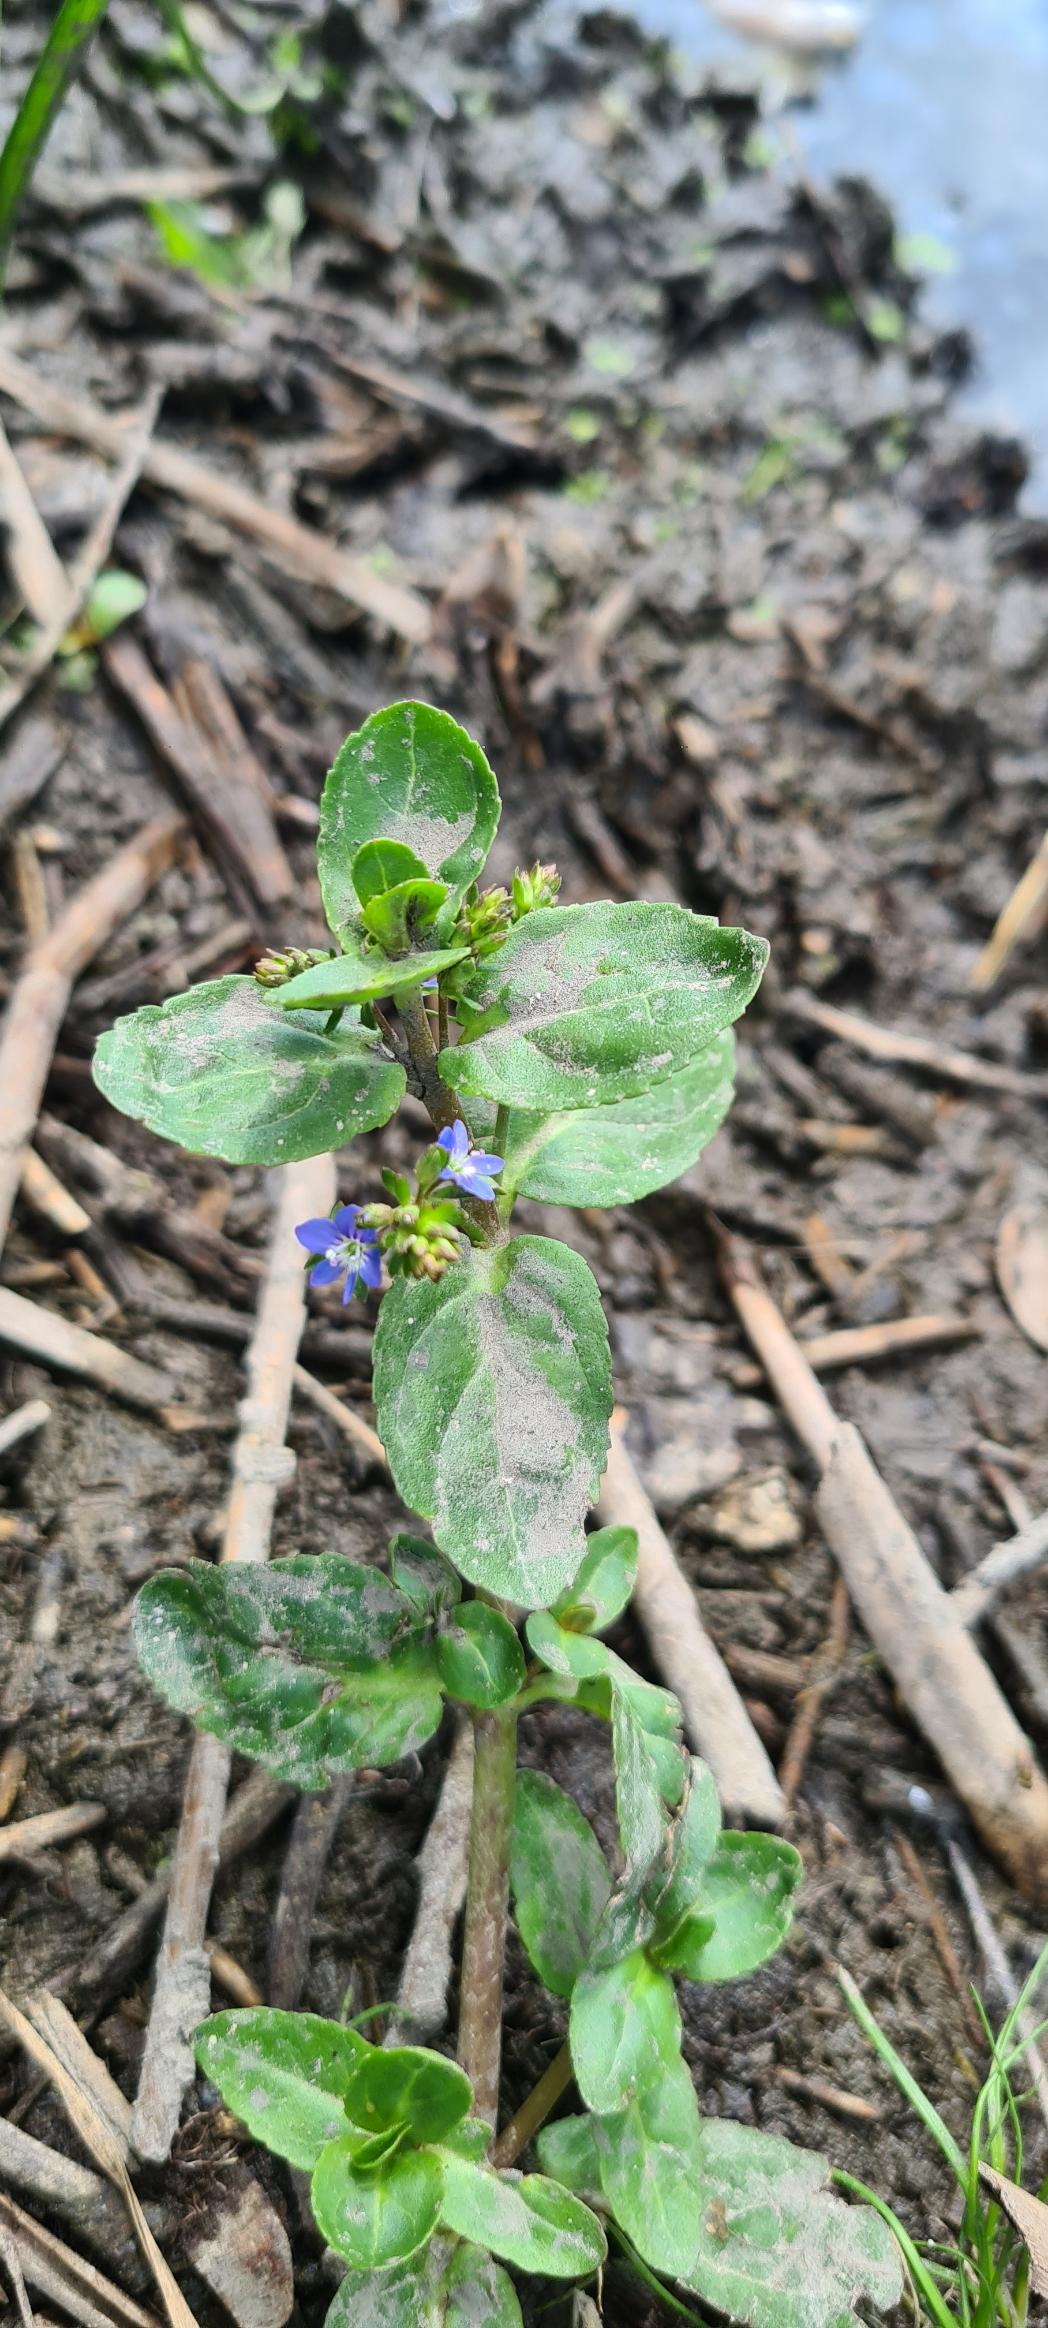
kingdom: Plantae
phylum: Tracheophyta
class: Magnoliopsida
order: Lamiales
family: Plantaginaceae
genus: Veronica
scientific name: Veronica beccabunga
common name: Tykbladet ærenpris
